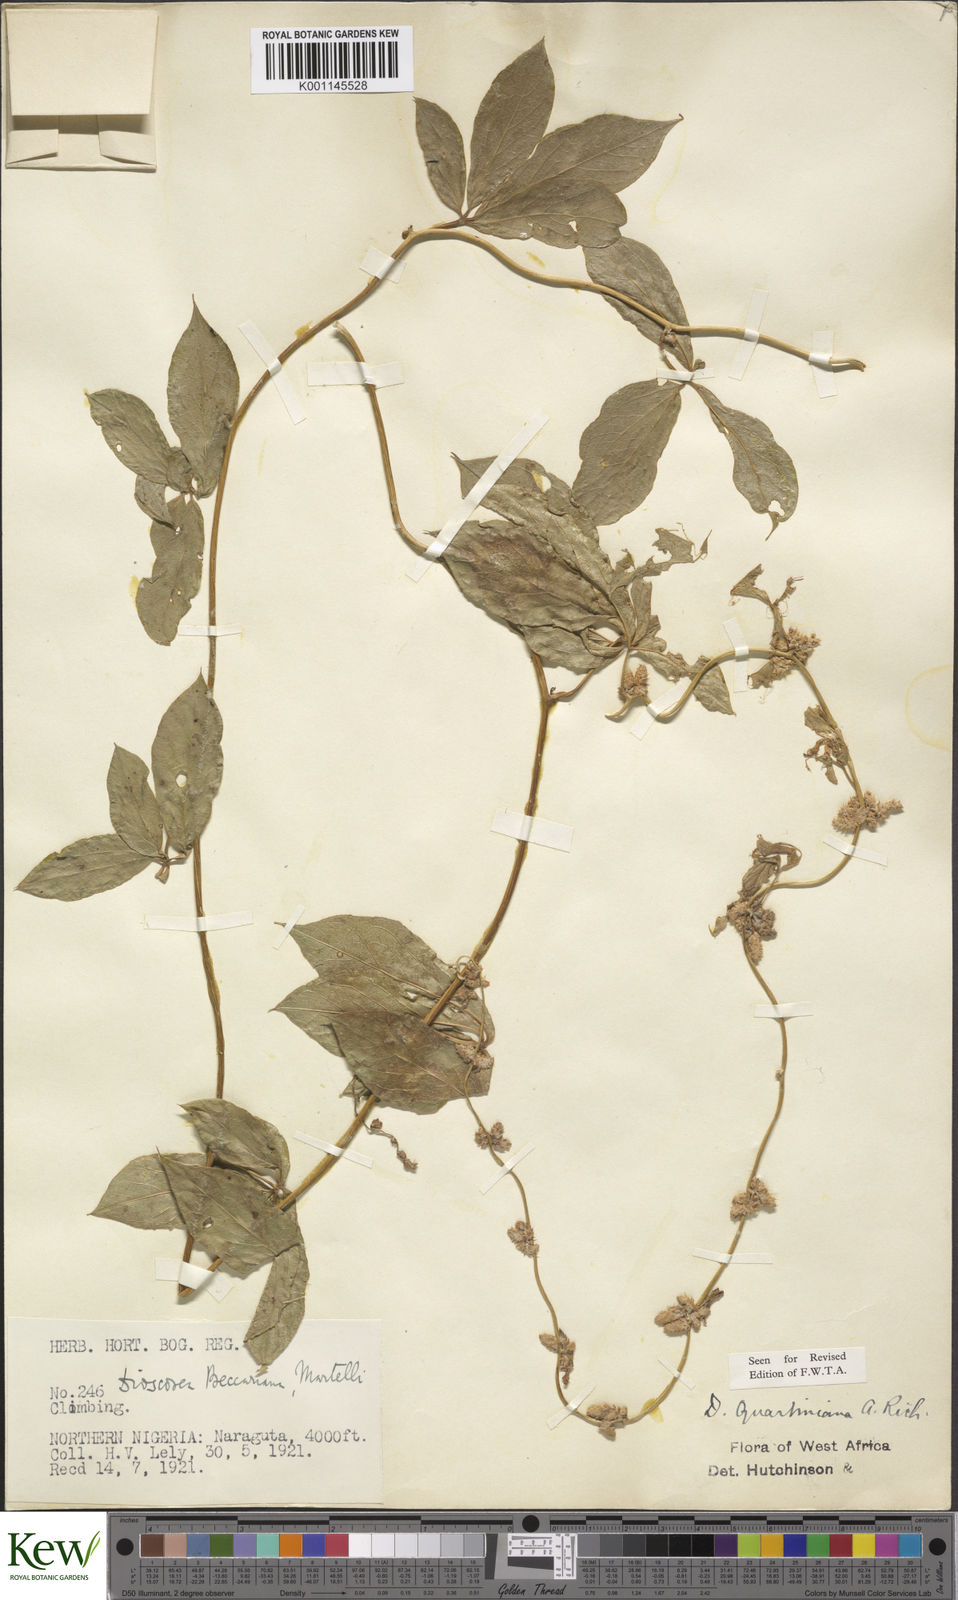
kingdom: Plantae
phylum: Tracheophyta
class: Liliopsida
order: Dioscoreales
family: Dioscoreaceae
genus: Dioscorea
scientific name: Dioscorea quartiniana
